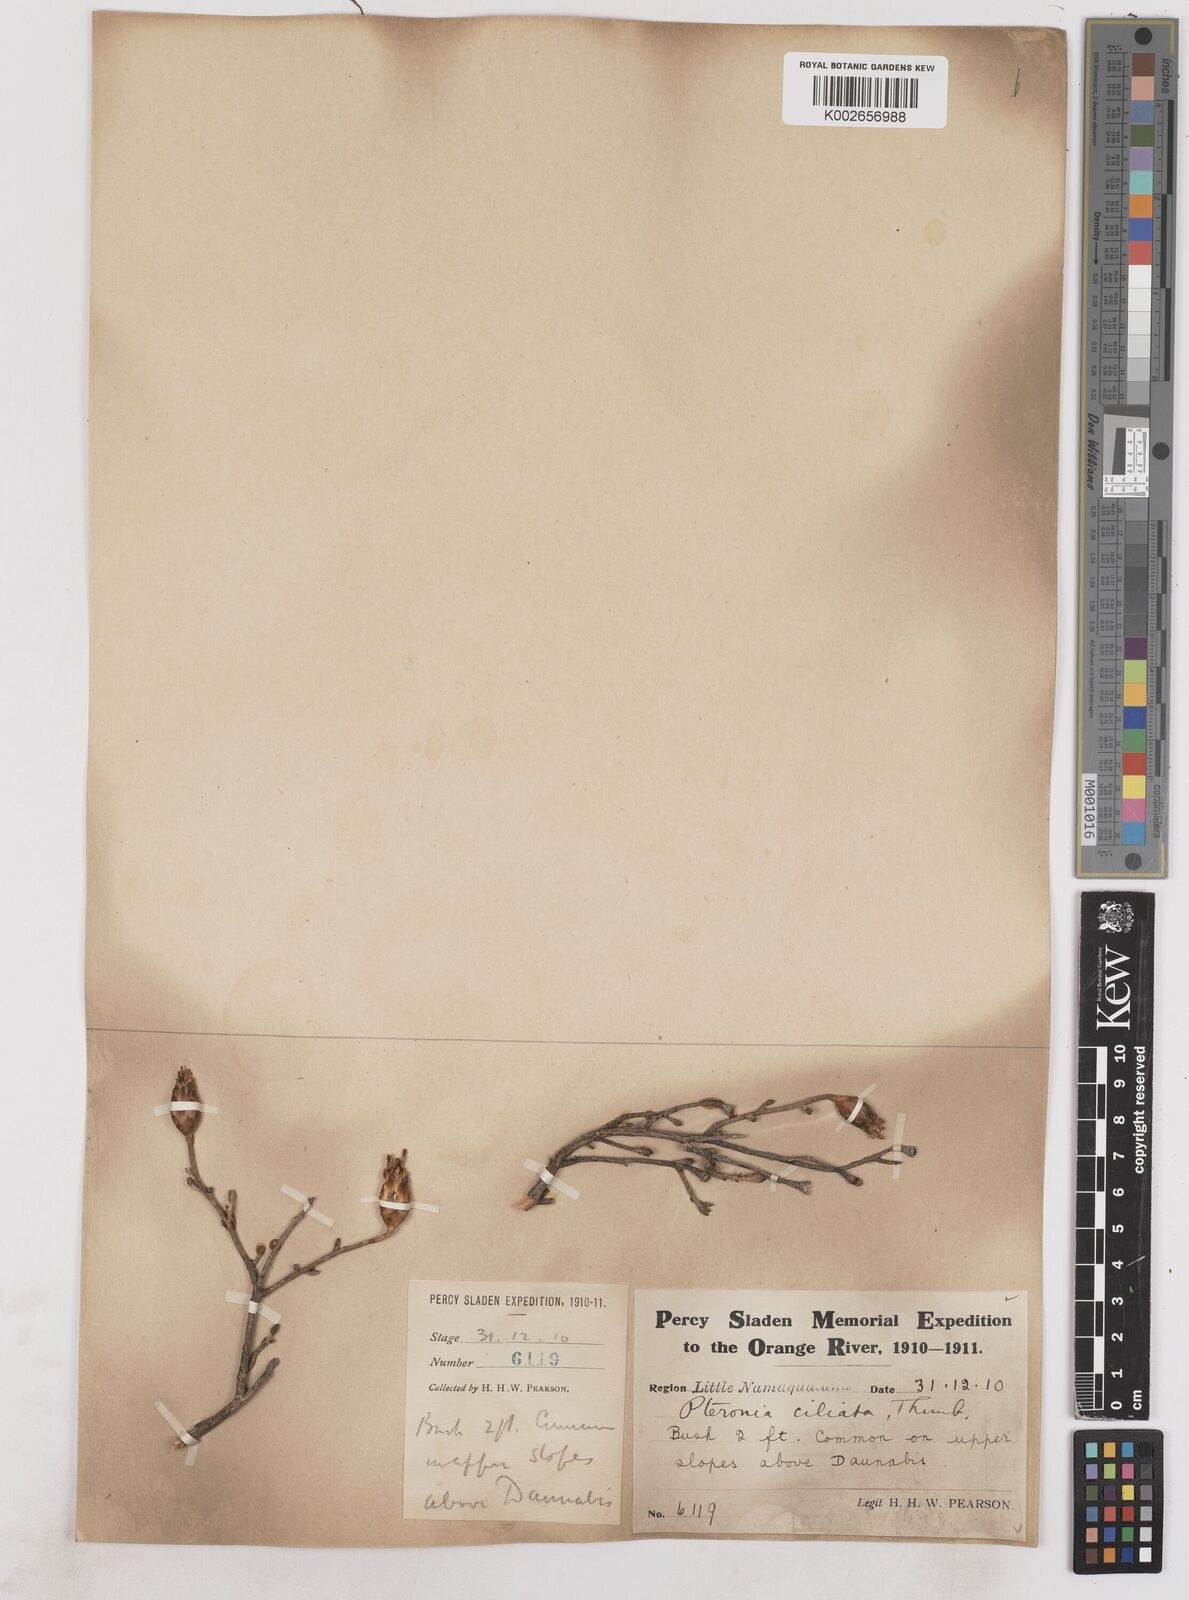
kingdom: Plantae
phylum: Tracheophyta
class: Magnoliopsida
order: Asterales
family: Asteraceae
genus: Pteronia
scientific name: Pteronia ciliata
